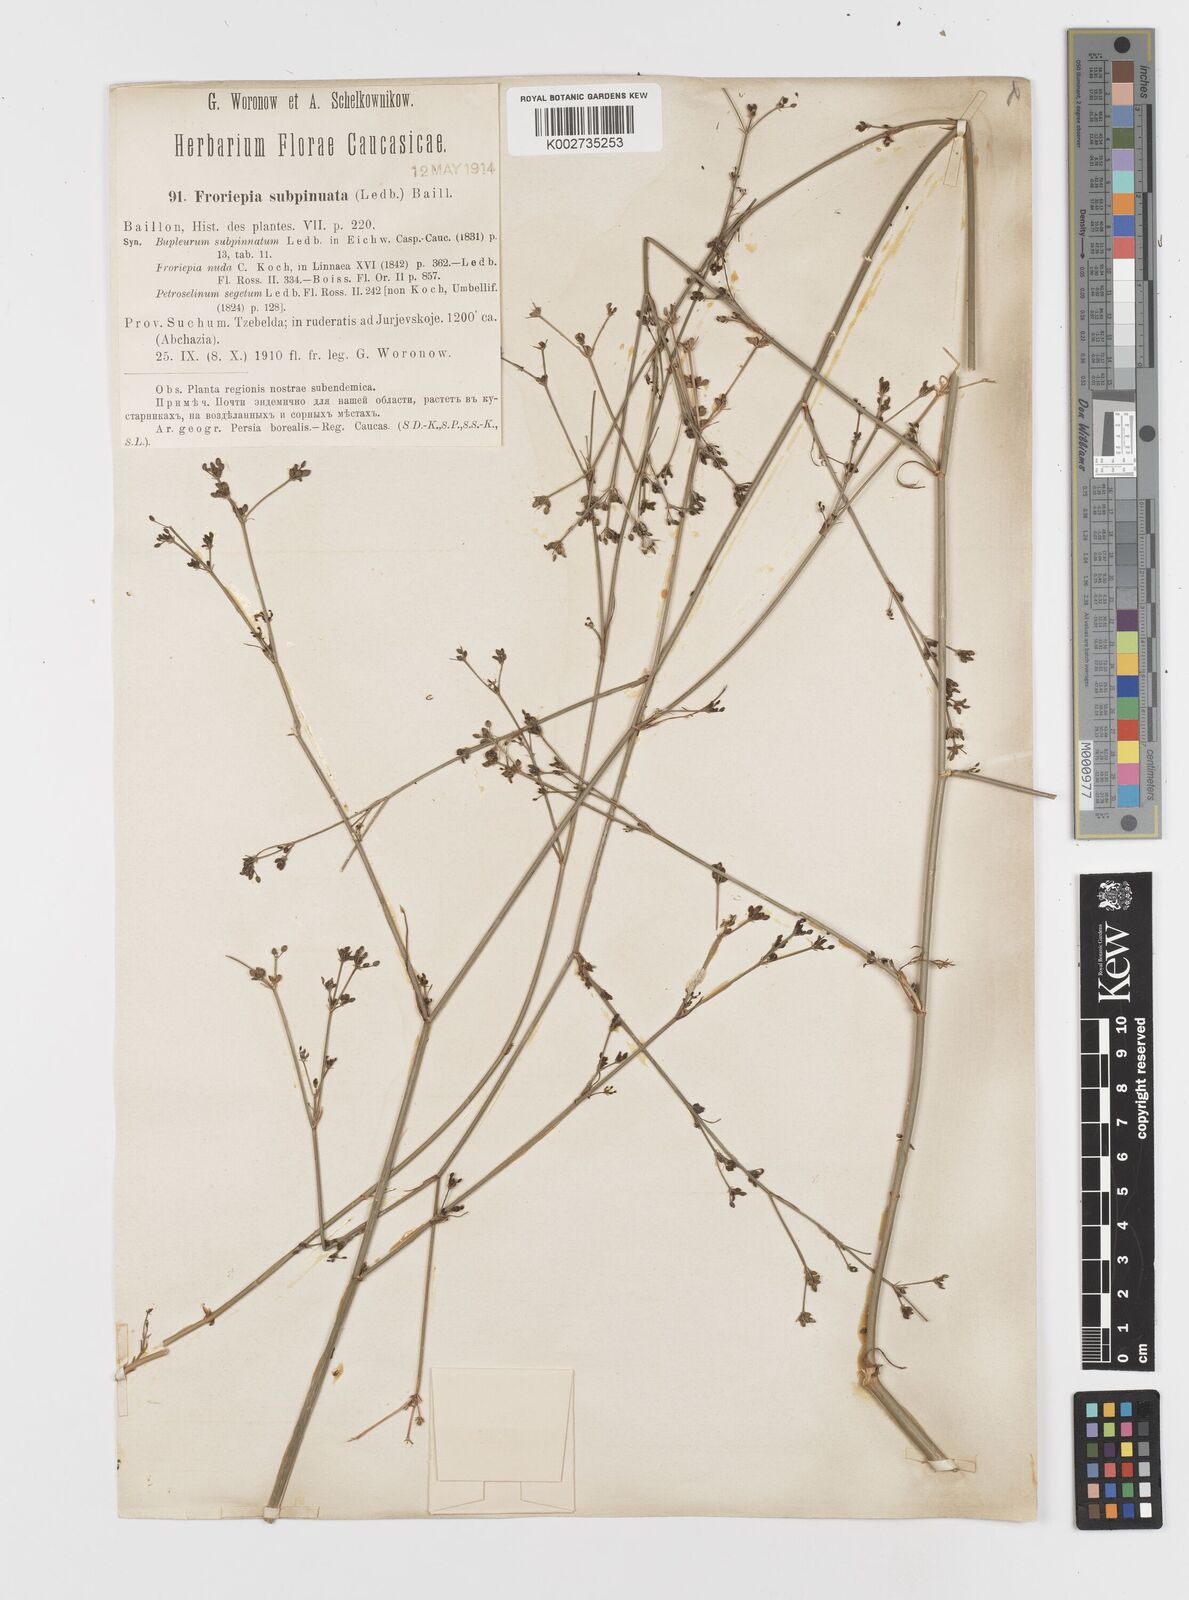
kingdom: Plantae
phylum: Tracheophyta
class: Magnoliopsida
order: Apiales
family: Apiaceae
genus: Froriepia
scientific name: Froriepia subpinnata
